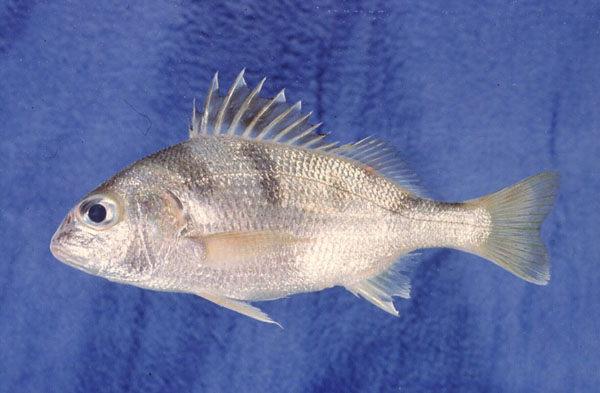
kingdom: Animalia
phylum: Chordata
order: Perciformes
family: Haemulidae
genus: Pomadasys
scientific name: Pomadasys maculatus
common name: Saddle grunt
